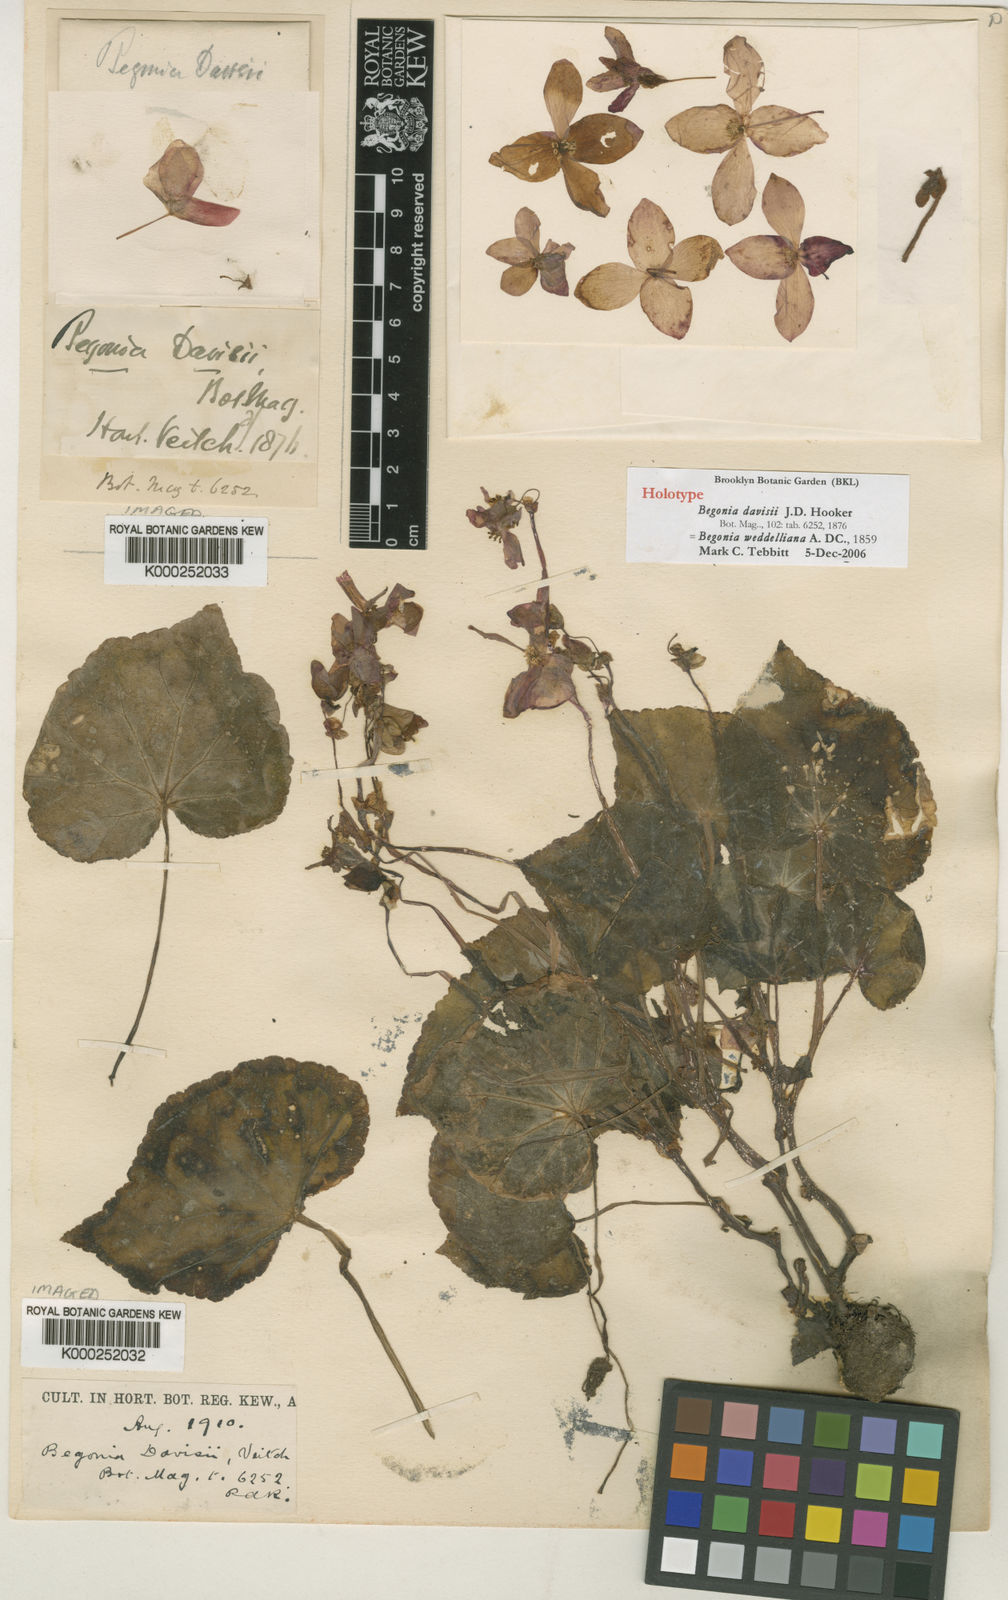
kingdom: Plantae
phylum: Tracheophyta
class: Magnoliopsida
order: Cucurbitales
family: Begoniaceae
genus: Begonia
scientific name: Begonia weddeliana
